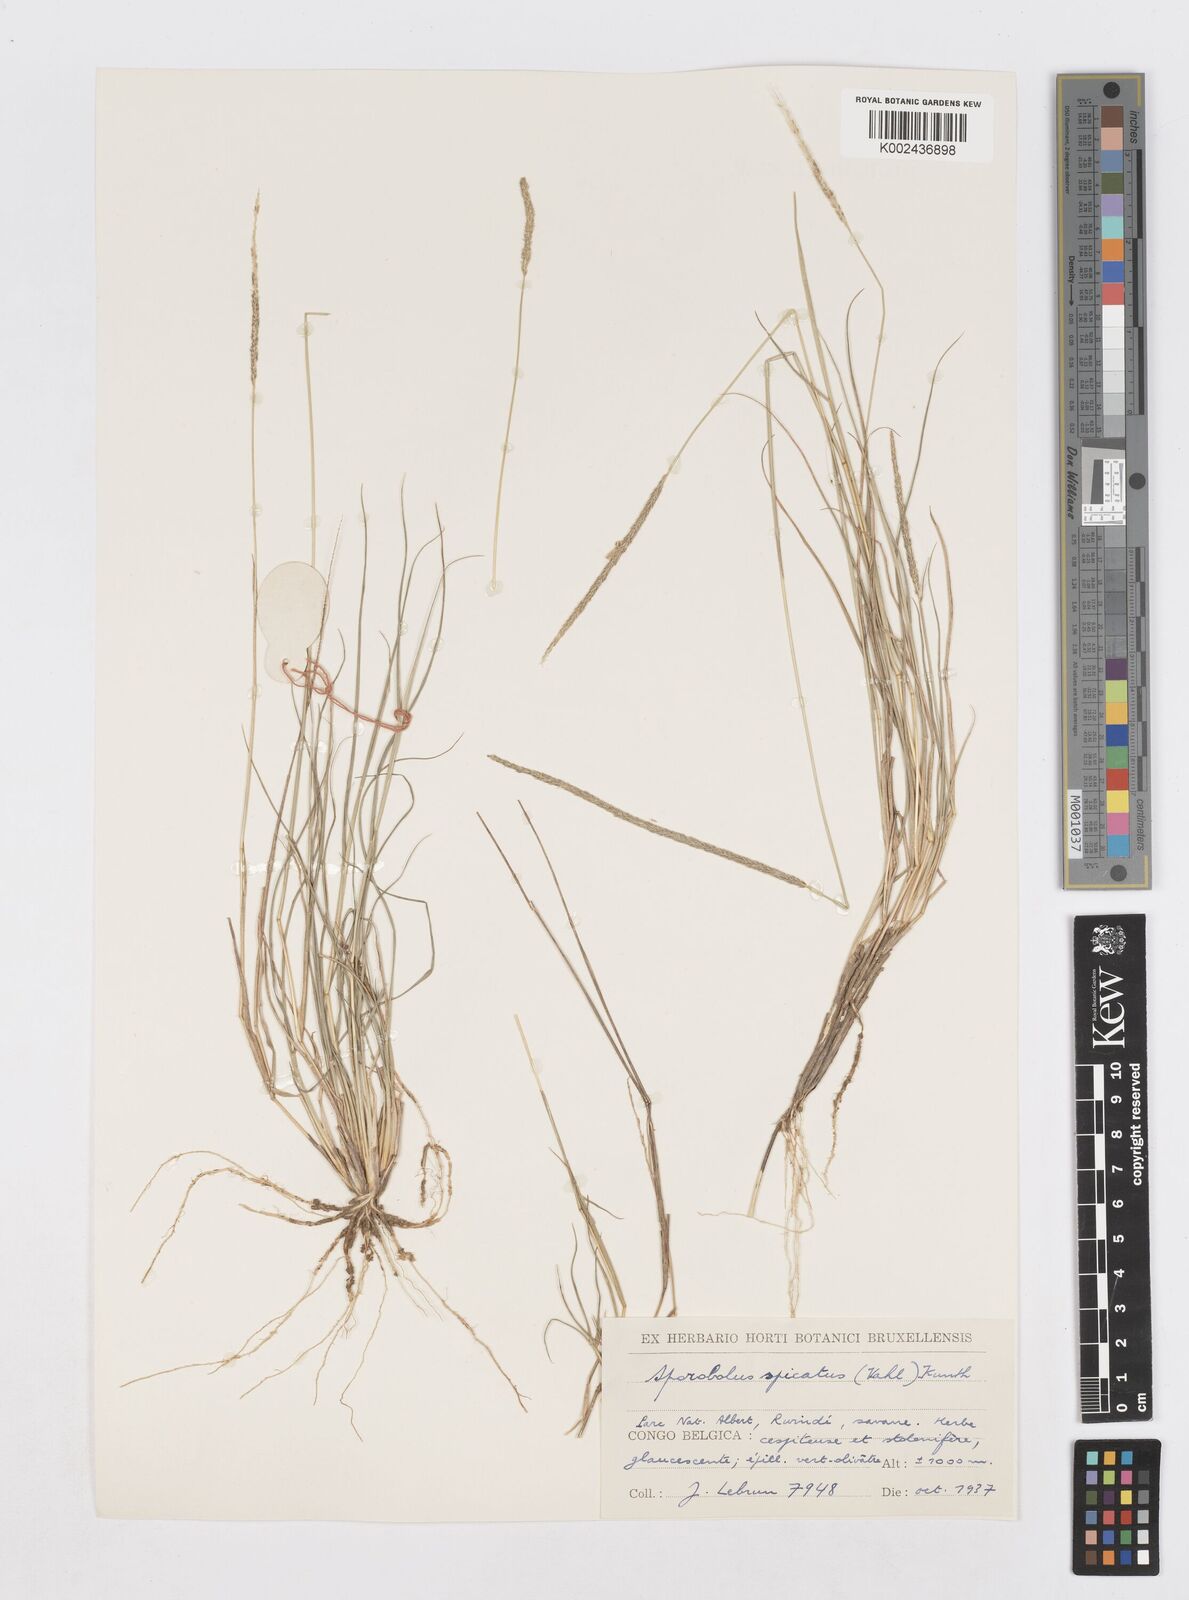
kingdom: Plantae
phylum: Tracheophyta
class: Liliopsida
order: Poales
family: Poaceae
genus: Sporobolus
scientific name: Sporobolus spicatus
